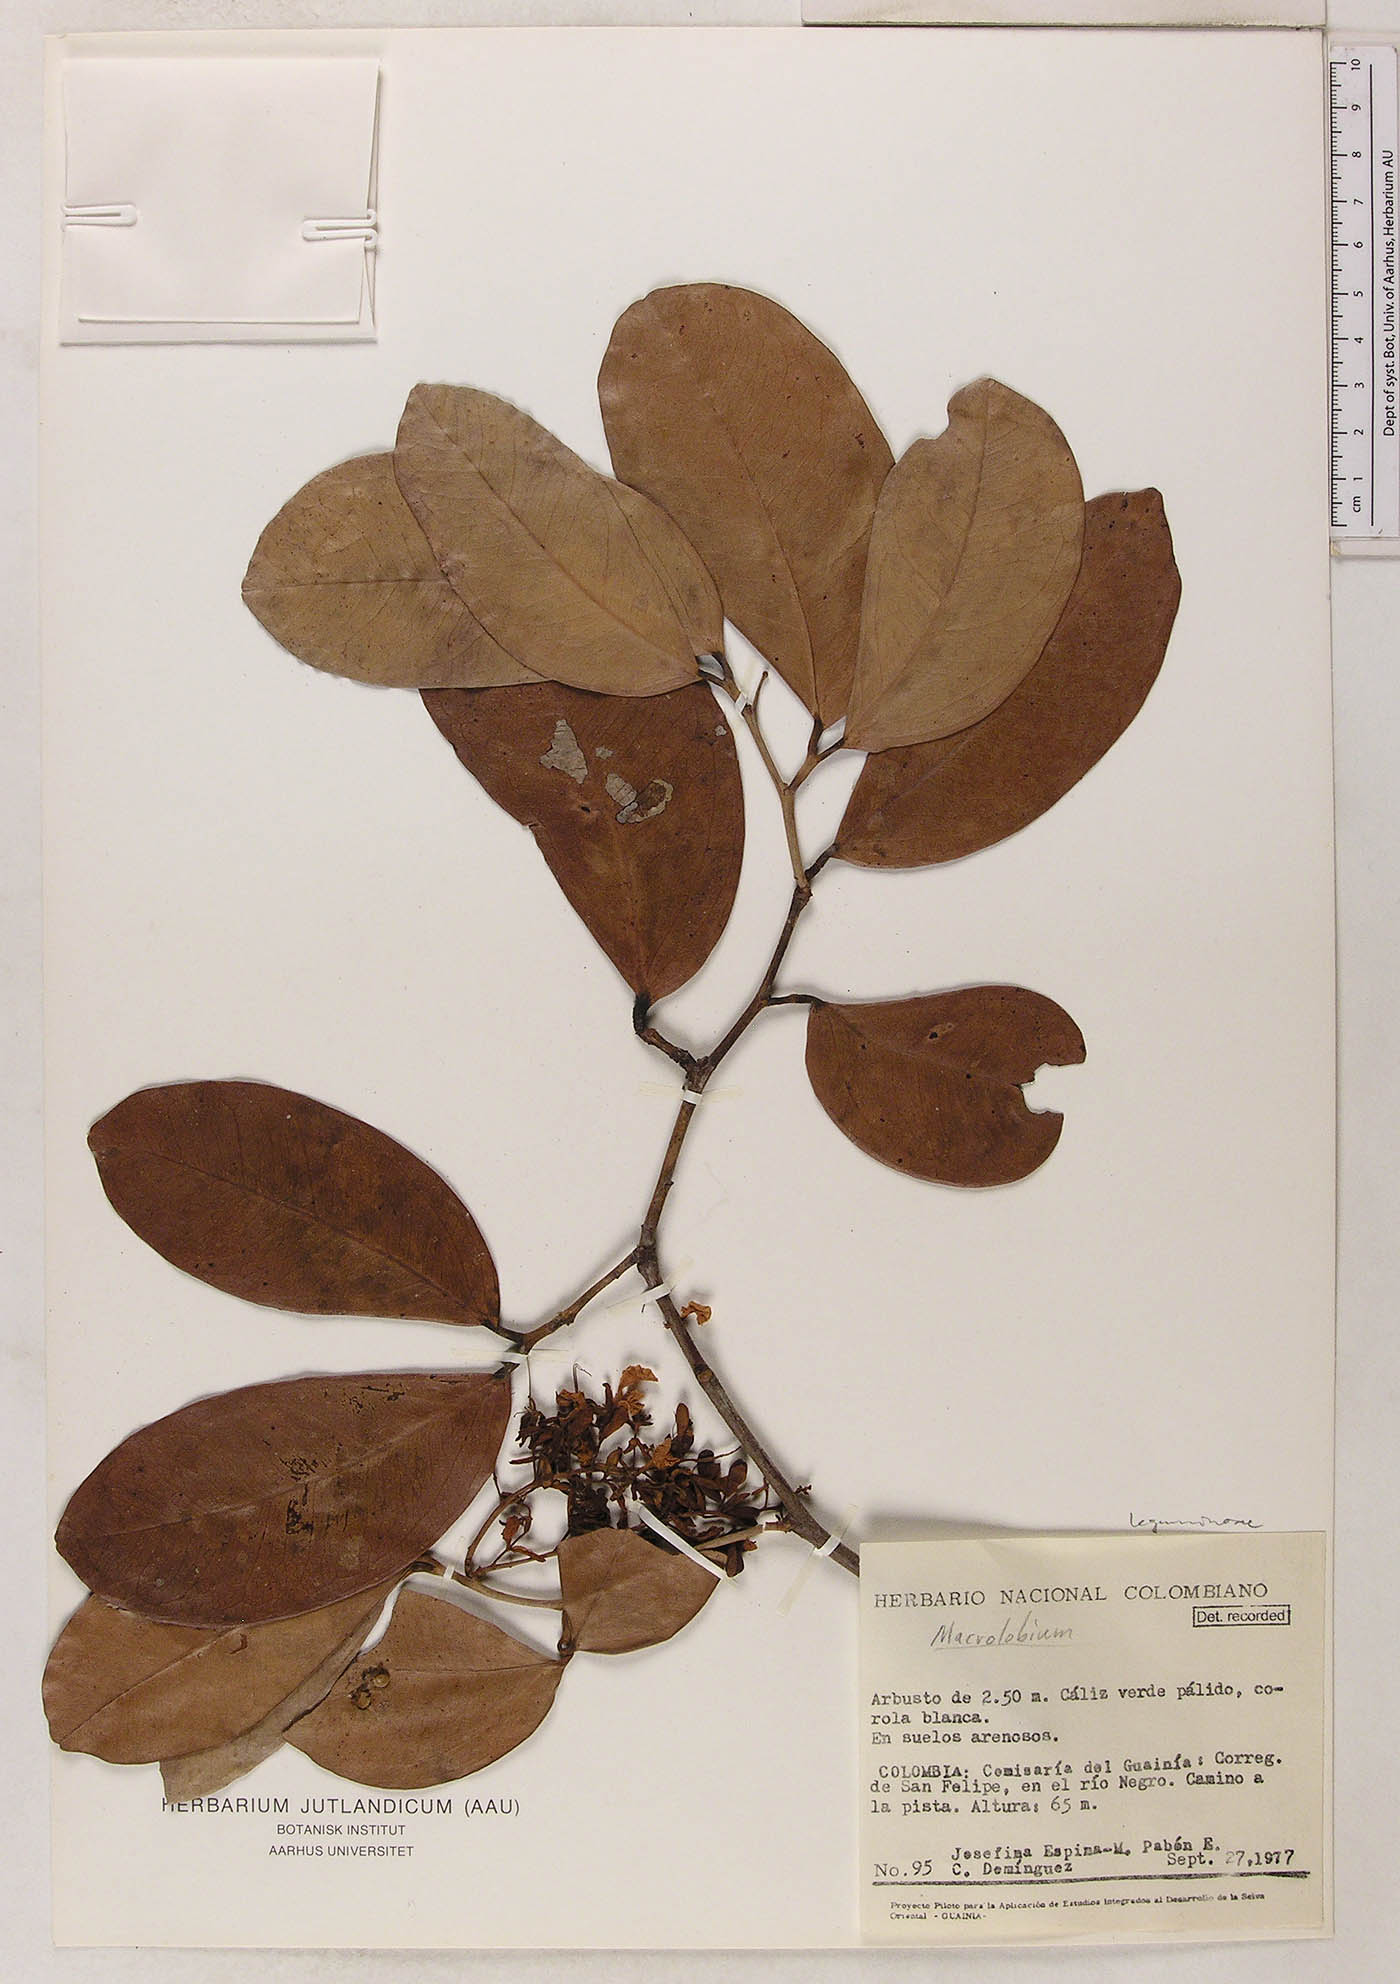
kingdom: Plantae
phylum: Tracheophyta
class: Magnoliopsida
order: Fabales
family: Fabaceae
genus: Macrolobium
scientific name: Macrolobium
